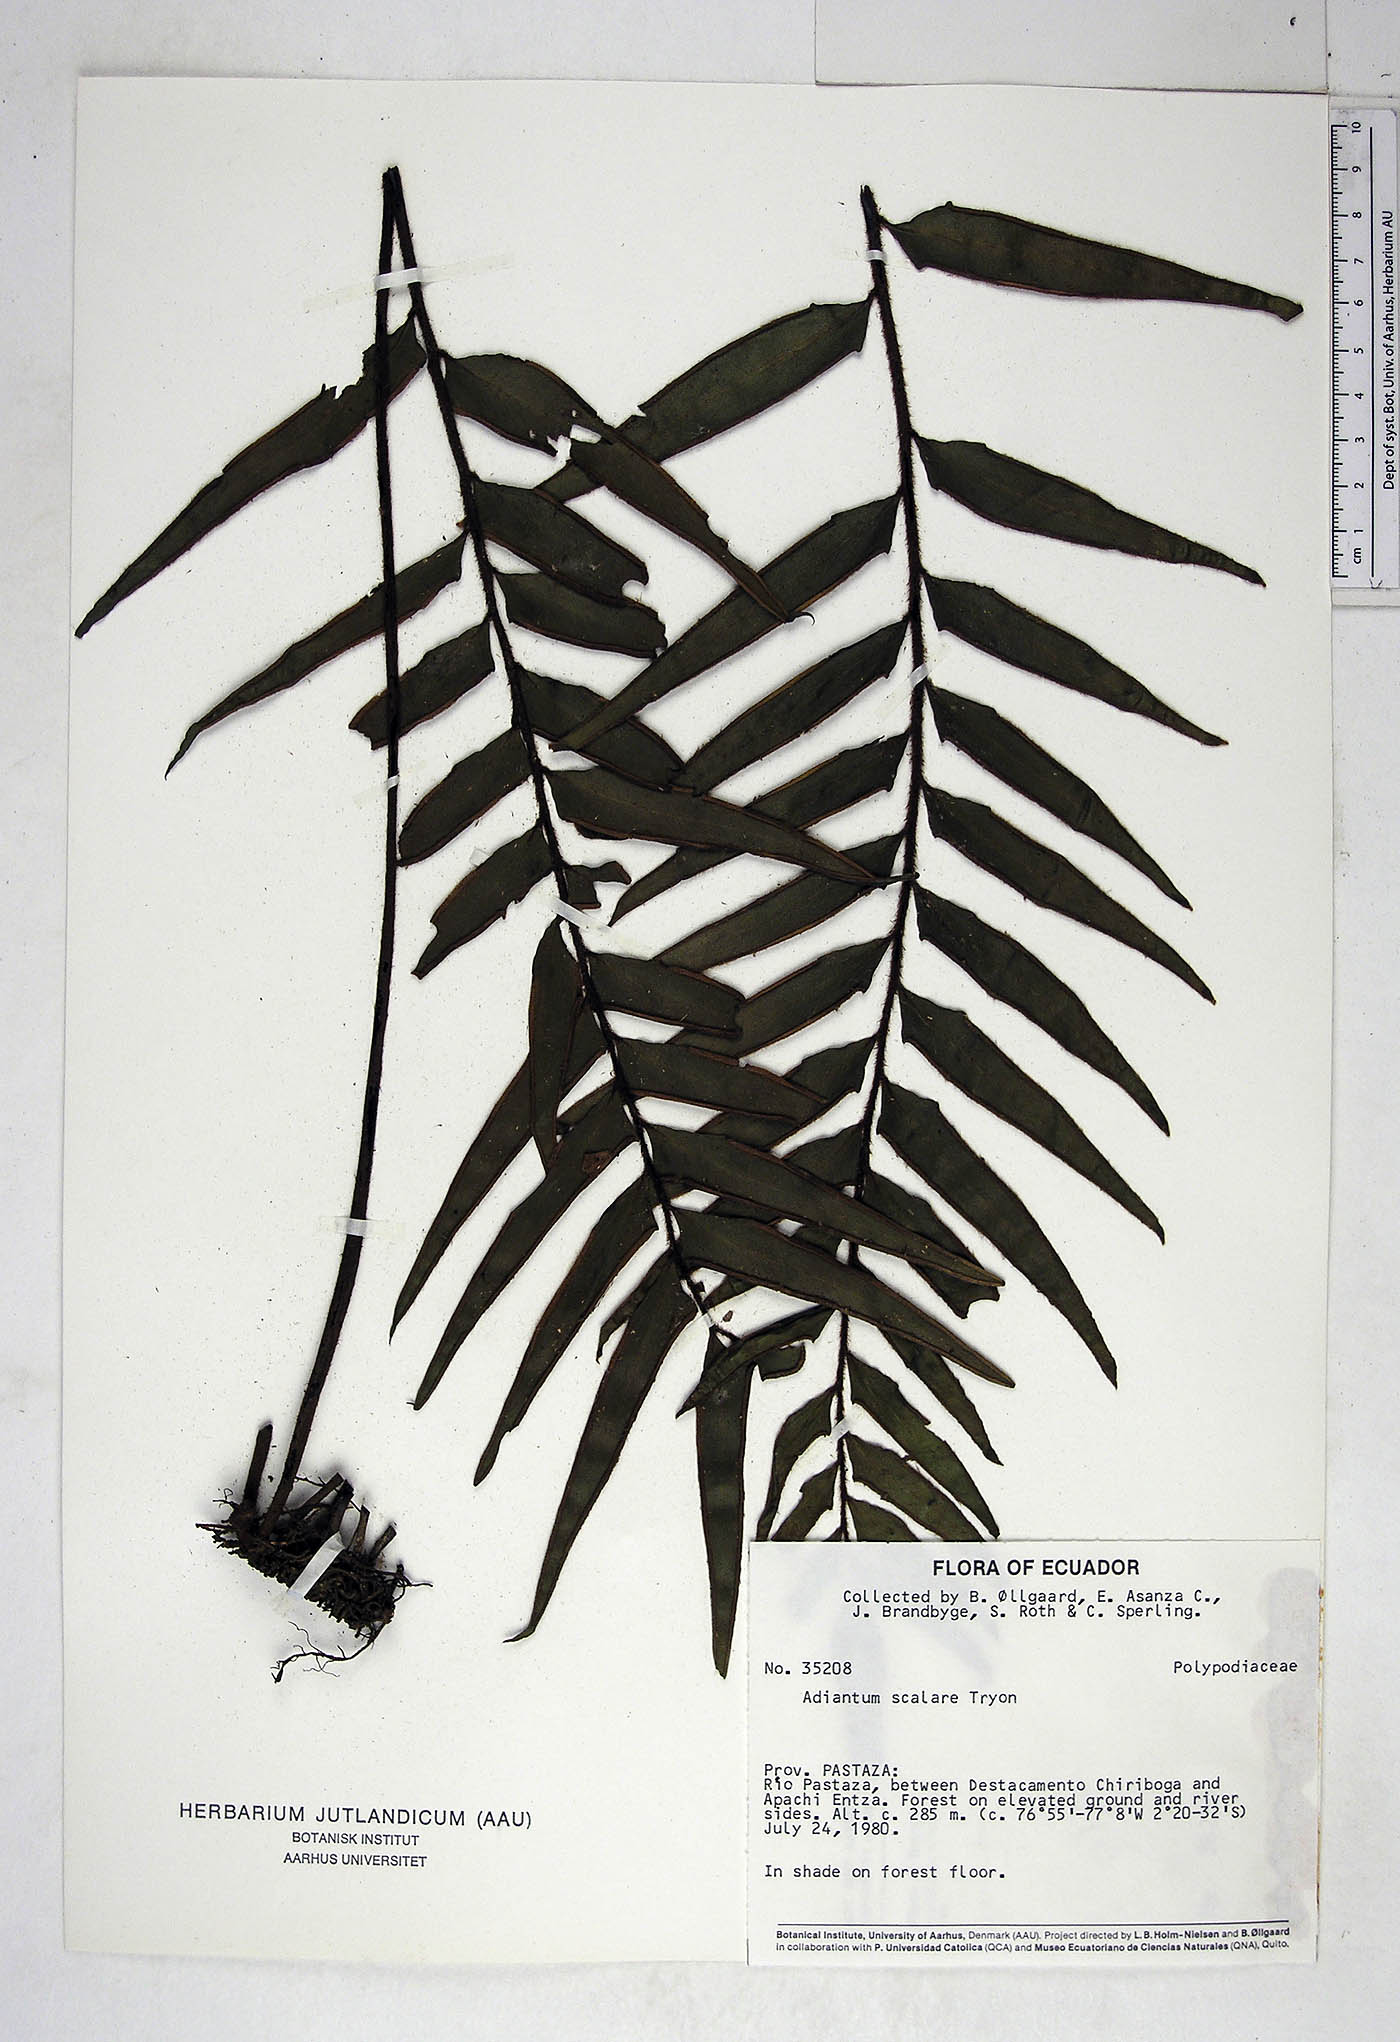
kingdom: Plantae
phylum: Tracheophyta
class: Polypodiopsida
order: Polypodiales
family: Pteridaceae
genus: Adiantum
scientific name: Adiantum scalare
